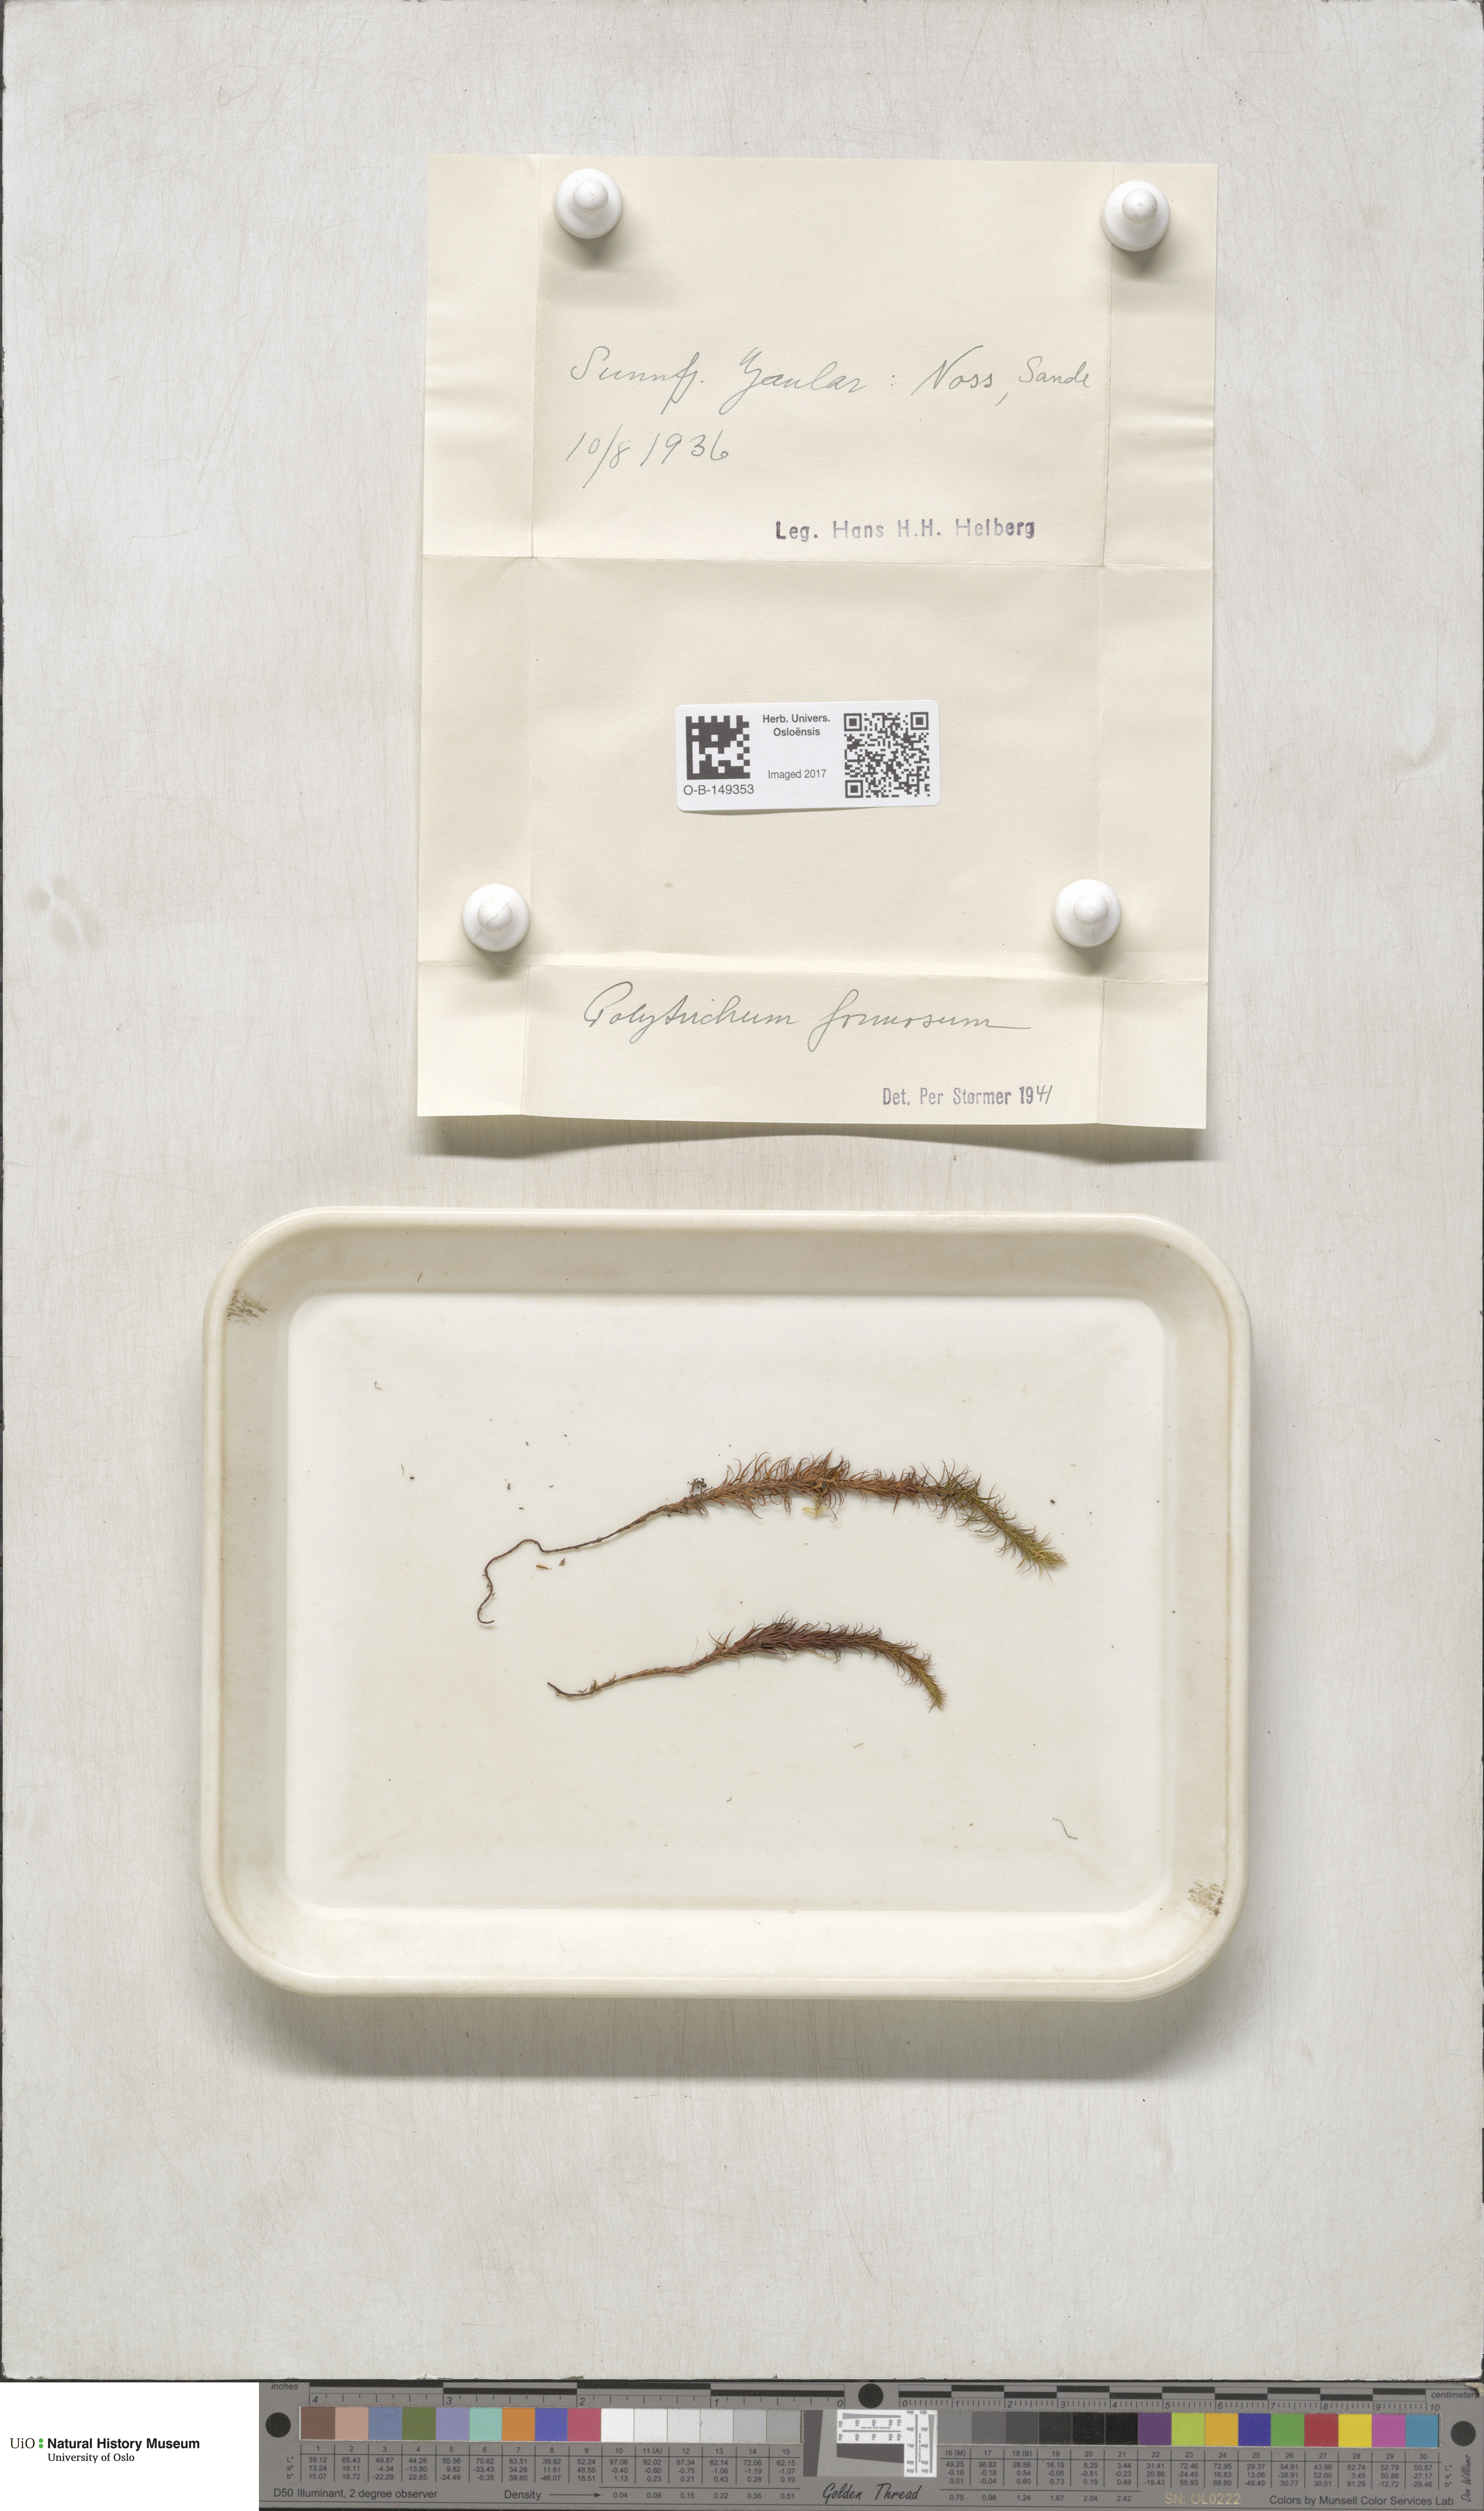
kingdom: Plantae
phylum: Bryophyta
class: Polytrichopsida
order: Polytrichales
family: Polytrichaceae
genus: Polytrichum
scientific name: Polytrichum formosum
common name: Bank haircap moss
